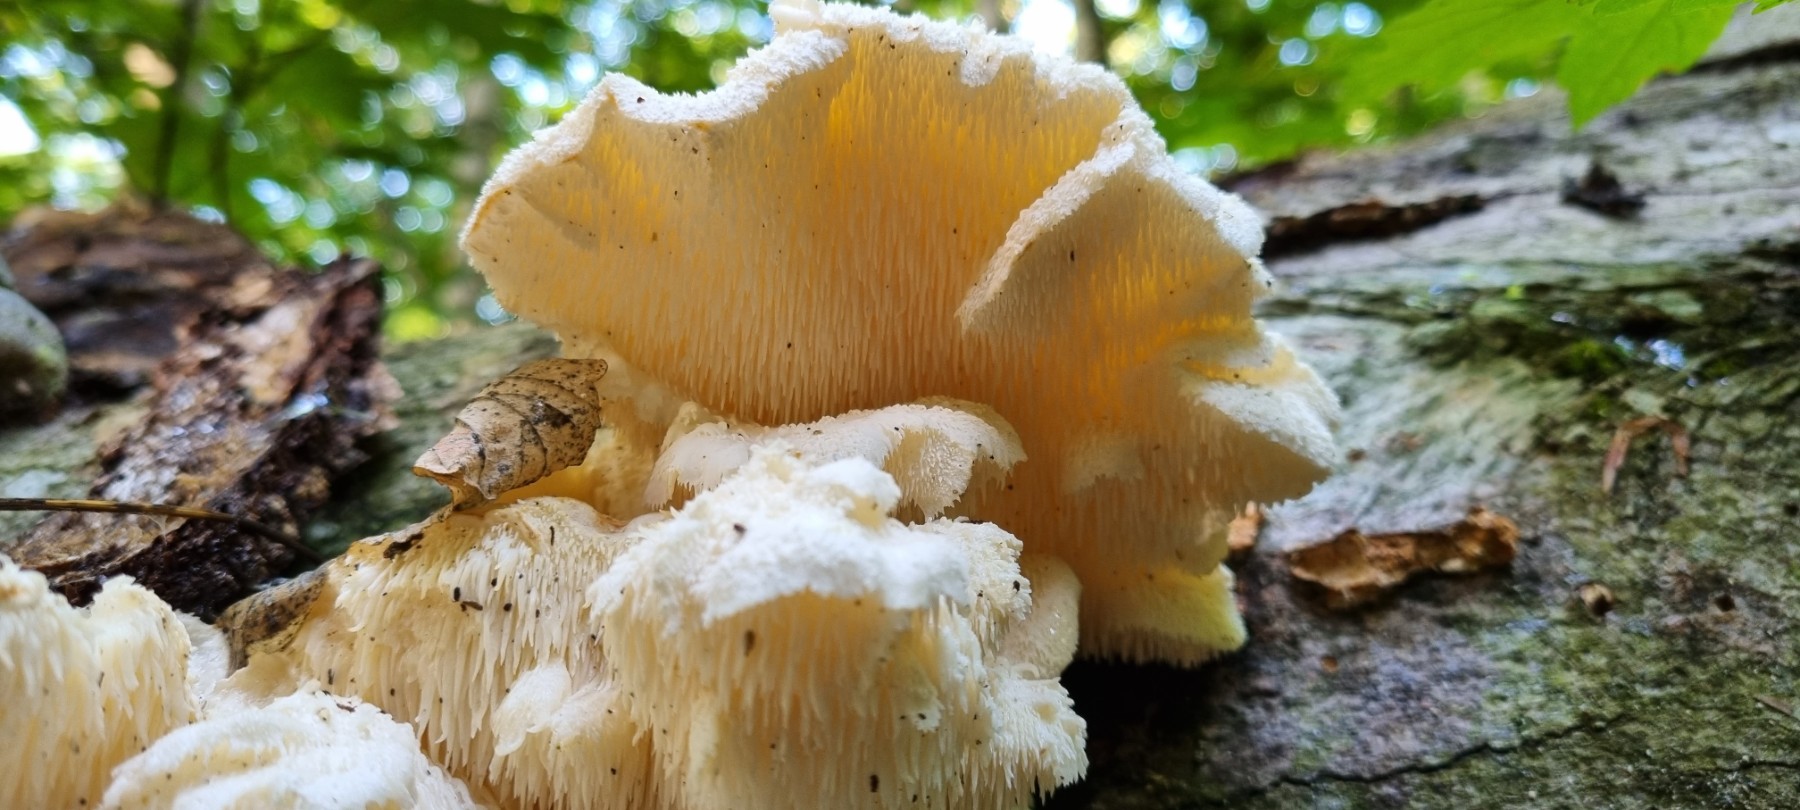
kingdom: Fungi
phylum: Basidiomycota
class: Agaricomycetes
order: Russulales
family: Hericiaceae
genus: Hericium
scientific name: Hericium cirrhatum
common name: børstepigsvamp
